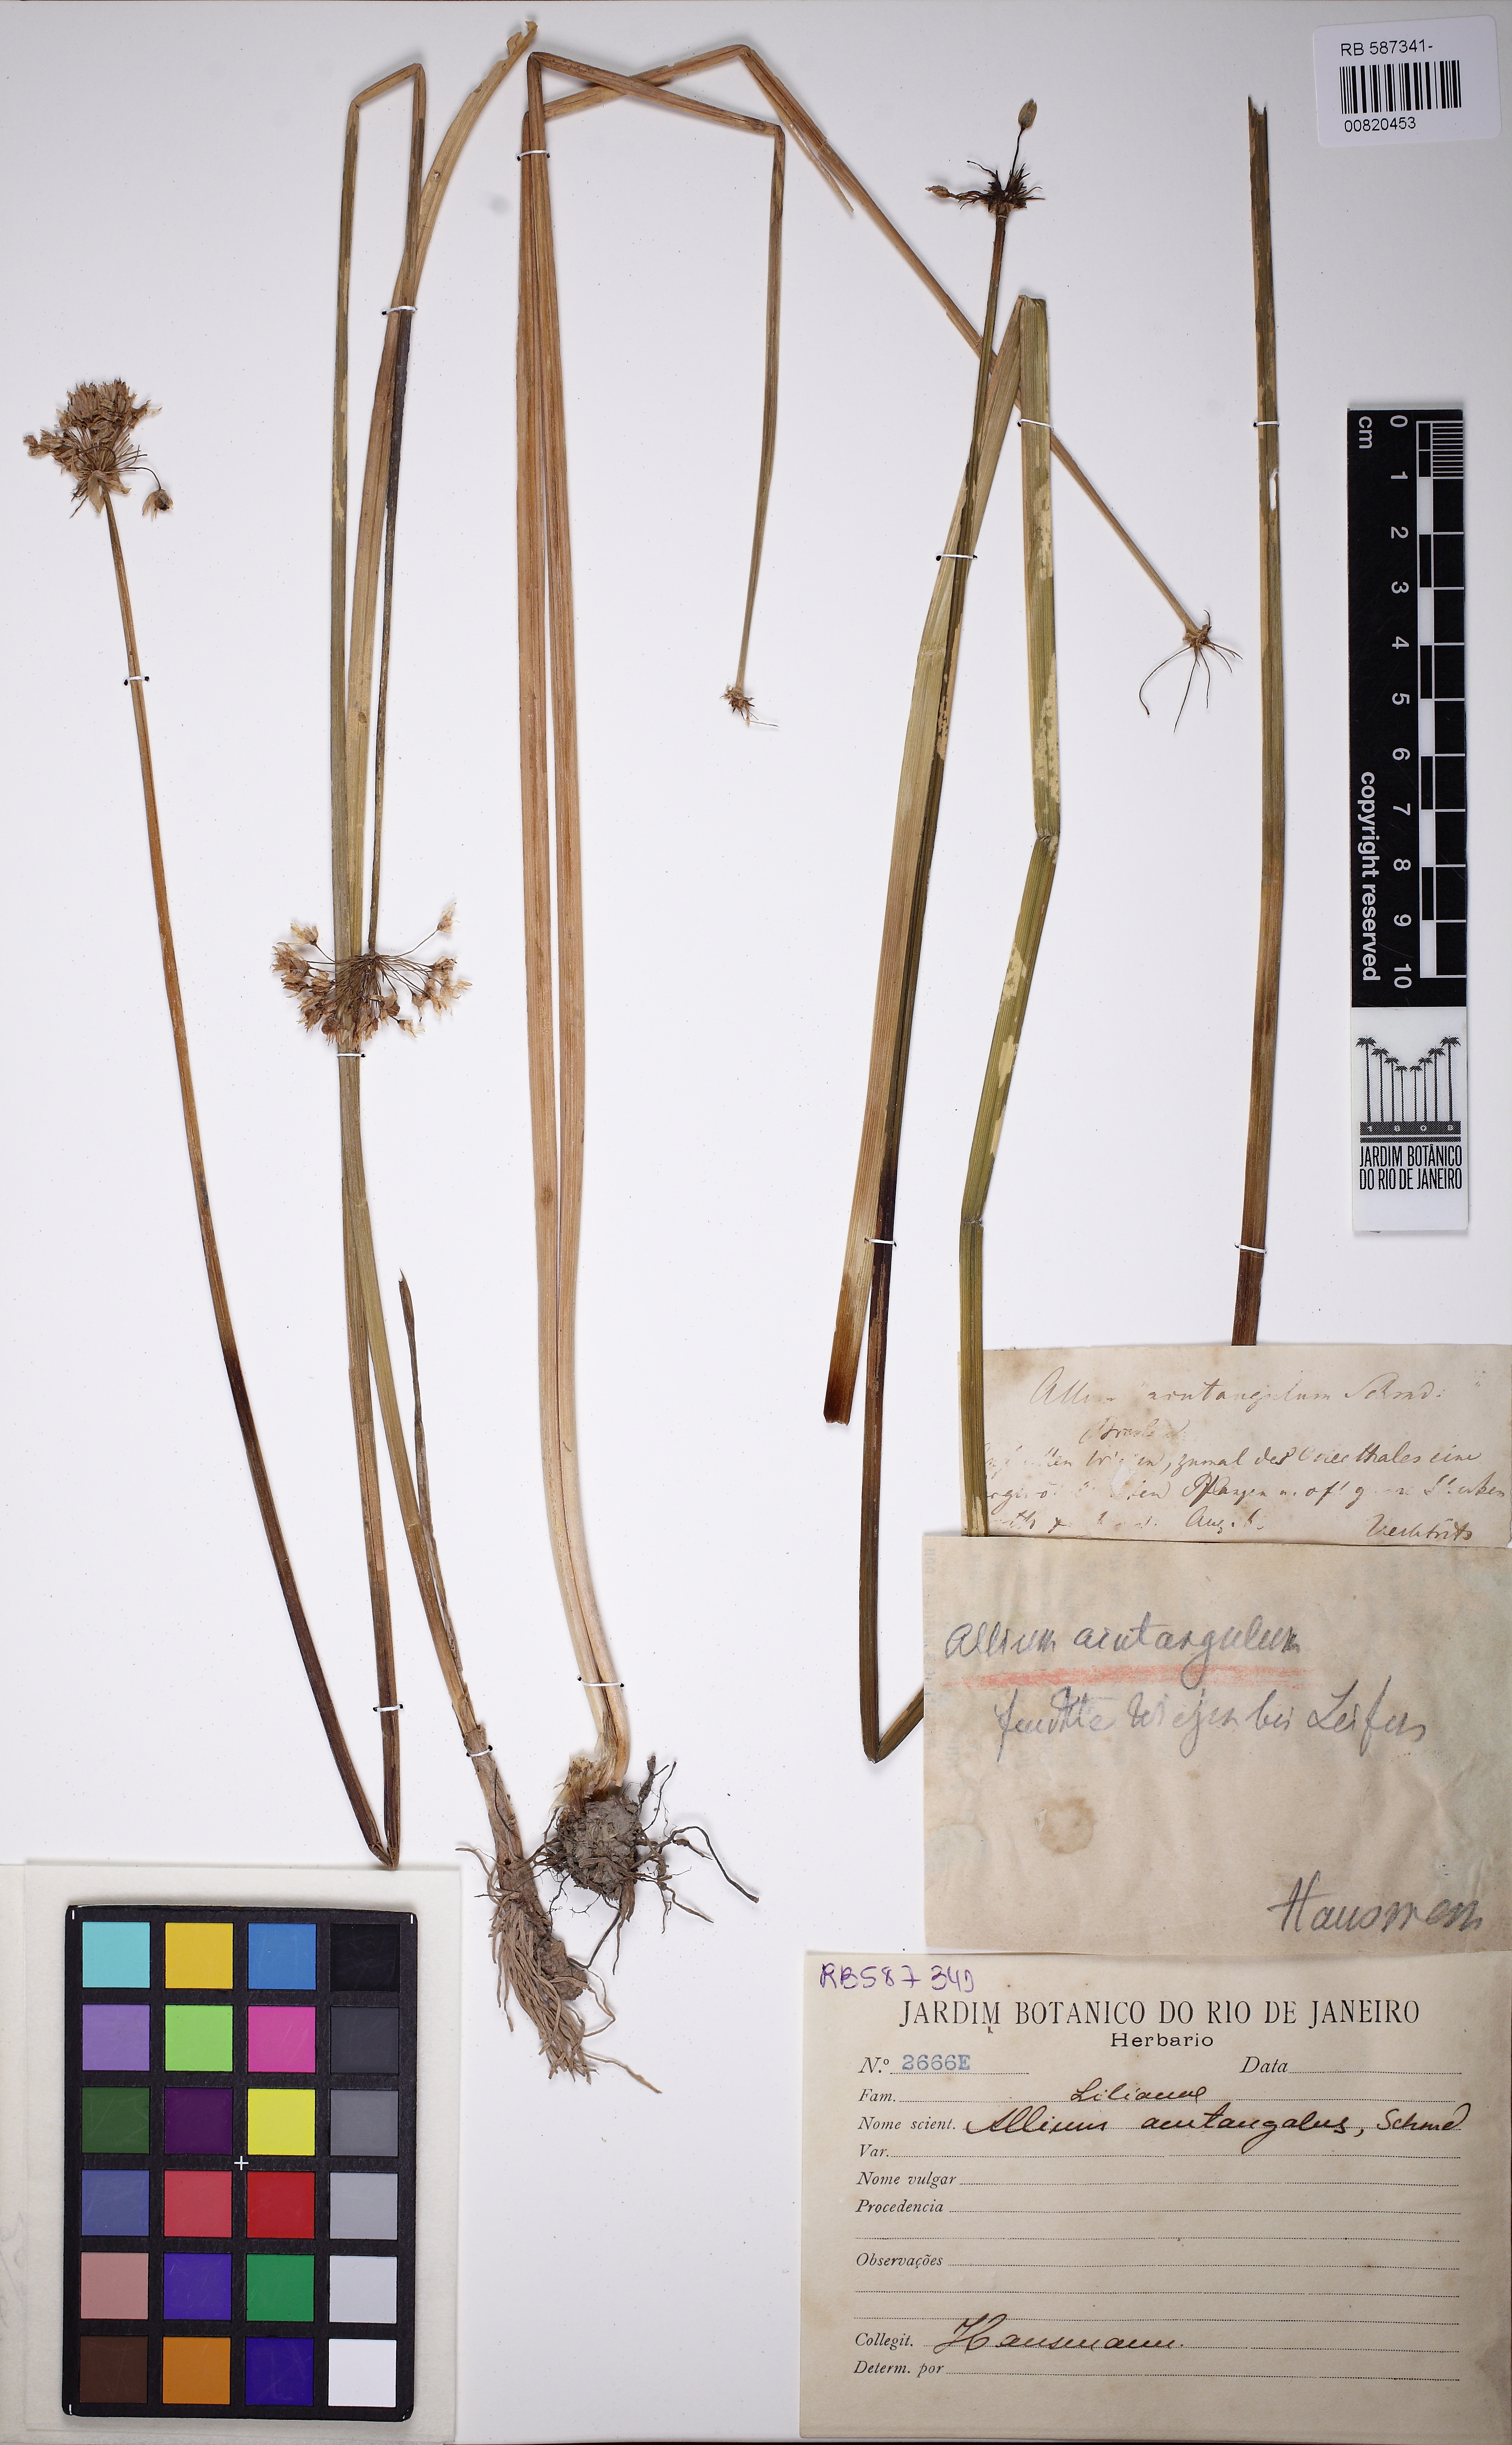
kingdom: Plantae
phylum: Tracheophyta
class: Liliopsida
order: Asparagales
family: Amaryllidaceae
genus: Allium
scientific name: Allium angulosum
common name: Mouse garlic
